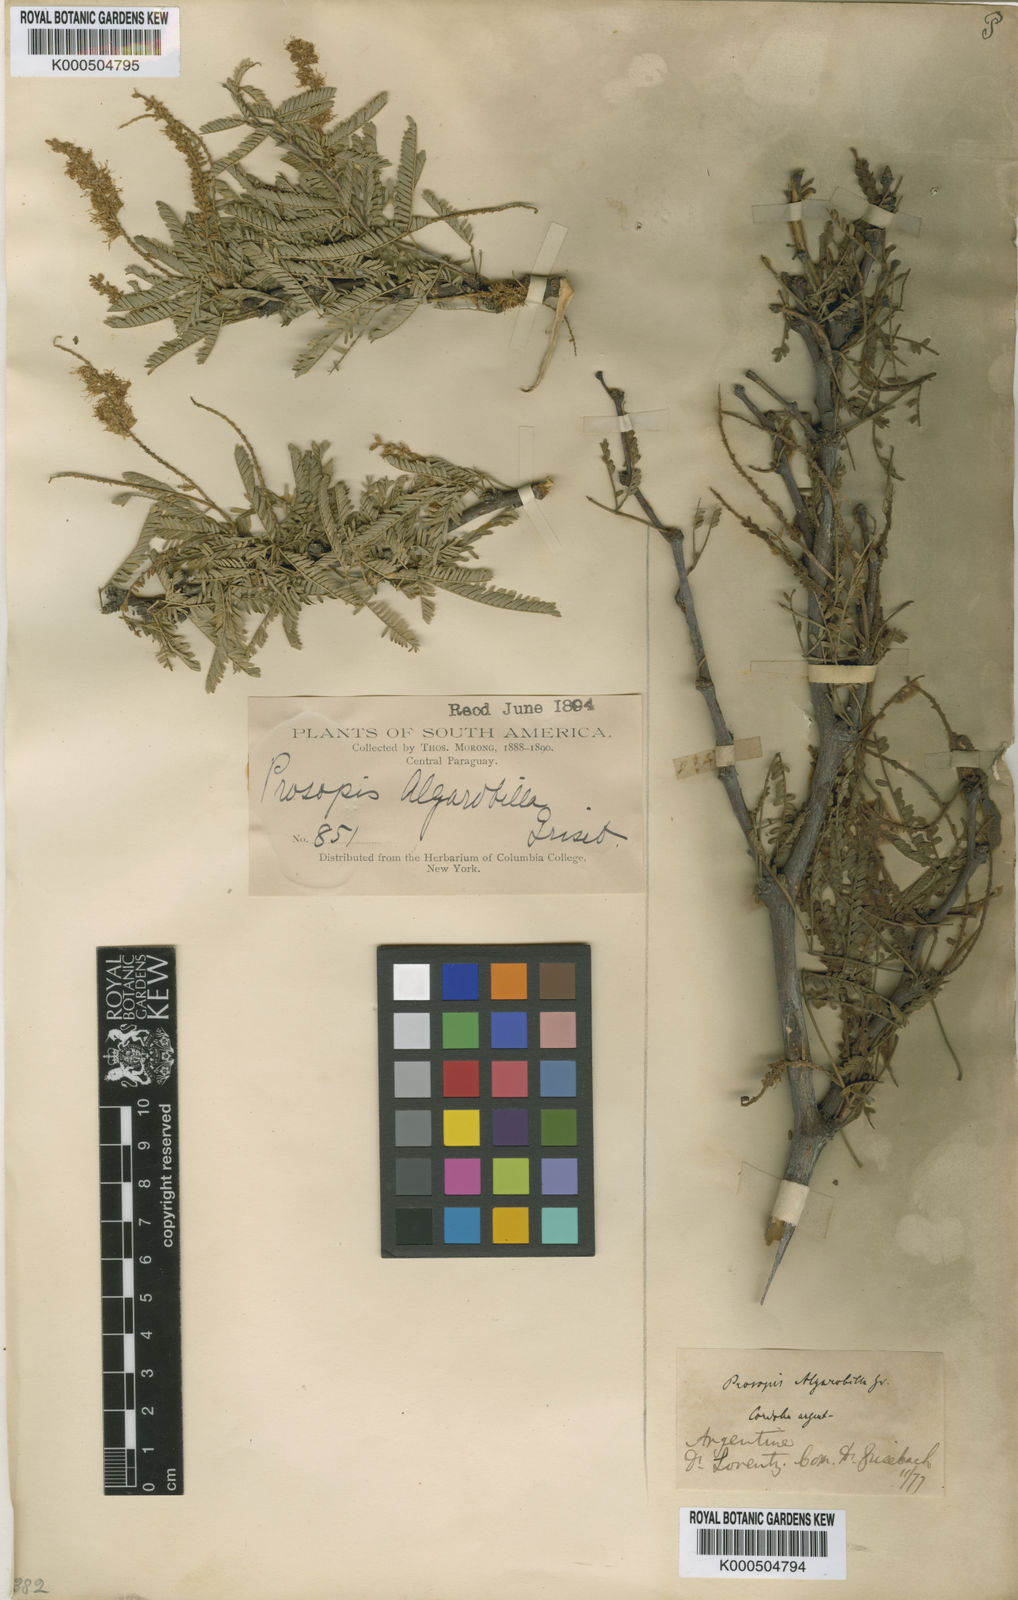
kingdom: Plantae
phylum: Tracheophyta
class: Magnoliopsida
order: Fabales
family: Fabaceae
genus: Prosopis
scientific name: Prosopis affinis
